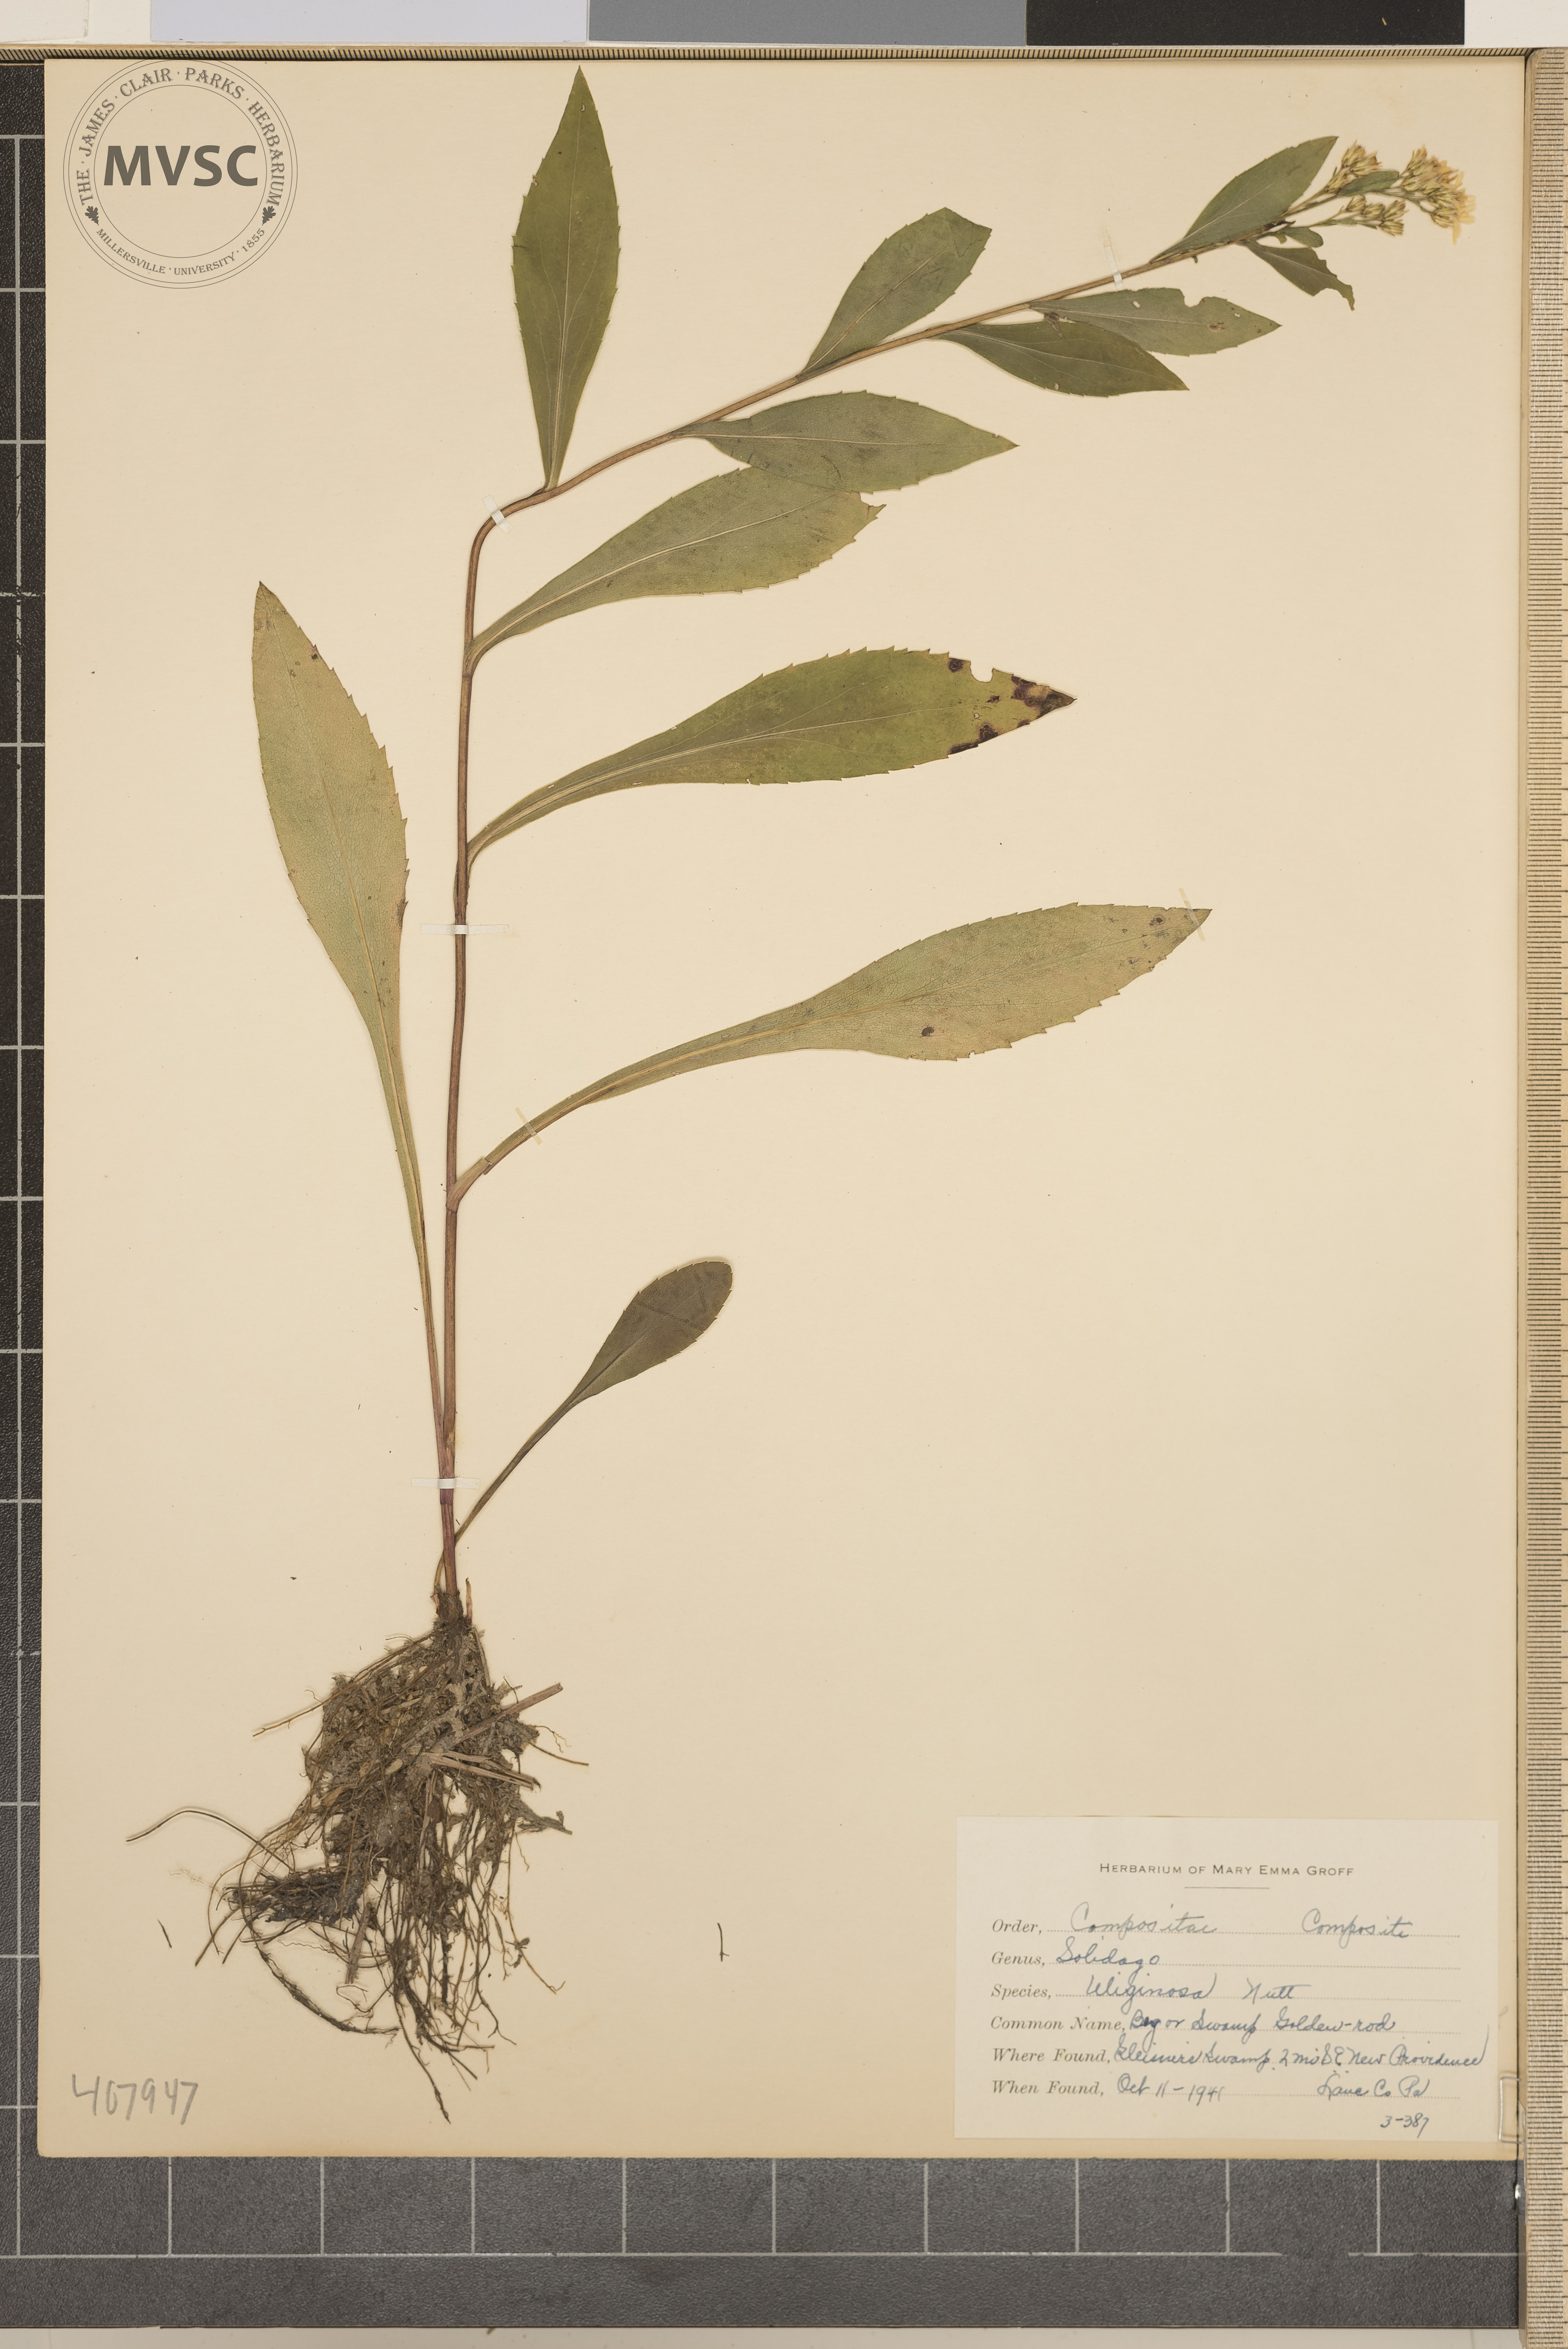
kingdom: Plantae
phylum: Tracheophyta
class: Magnoliopsida
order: Asterales
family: Asteraceae
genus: Solidago
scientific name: Solidago uliginosa
